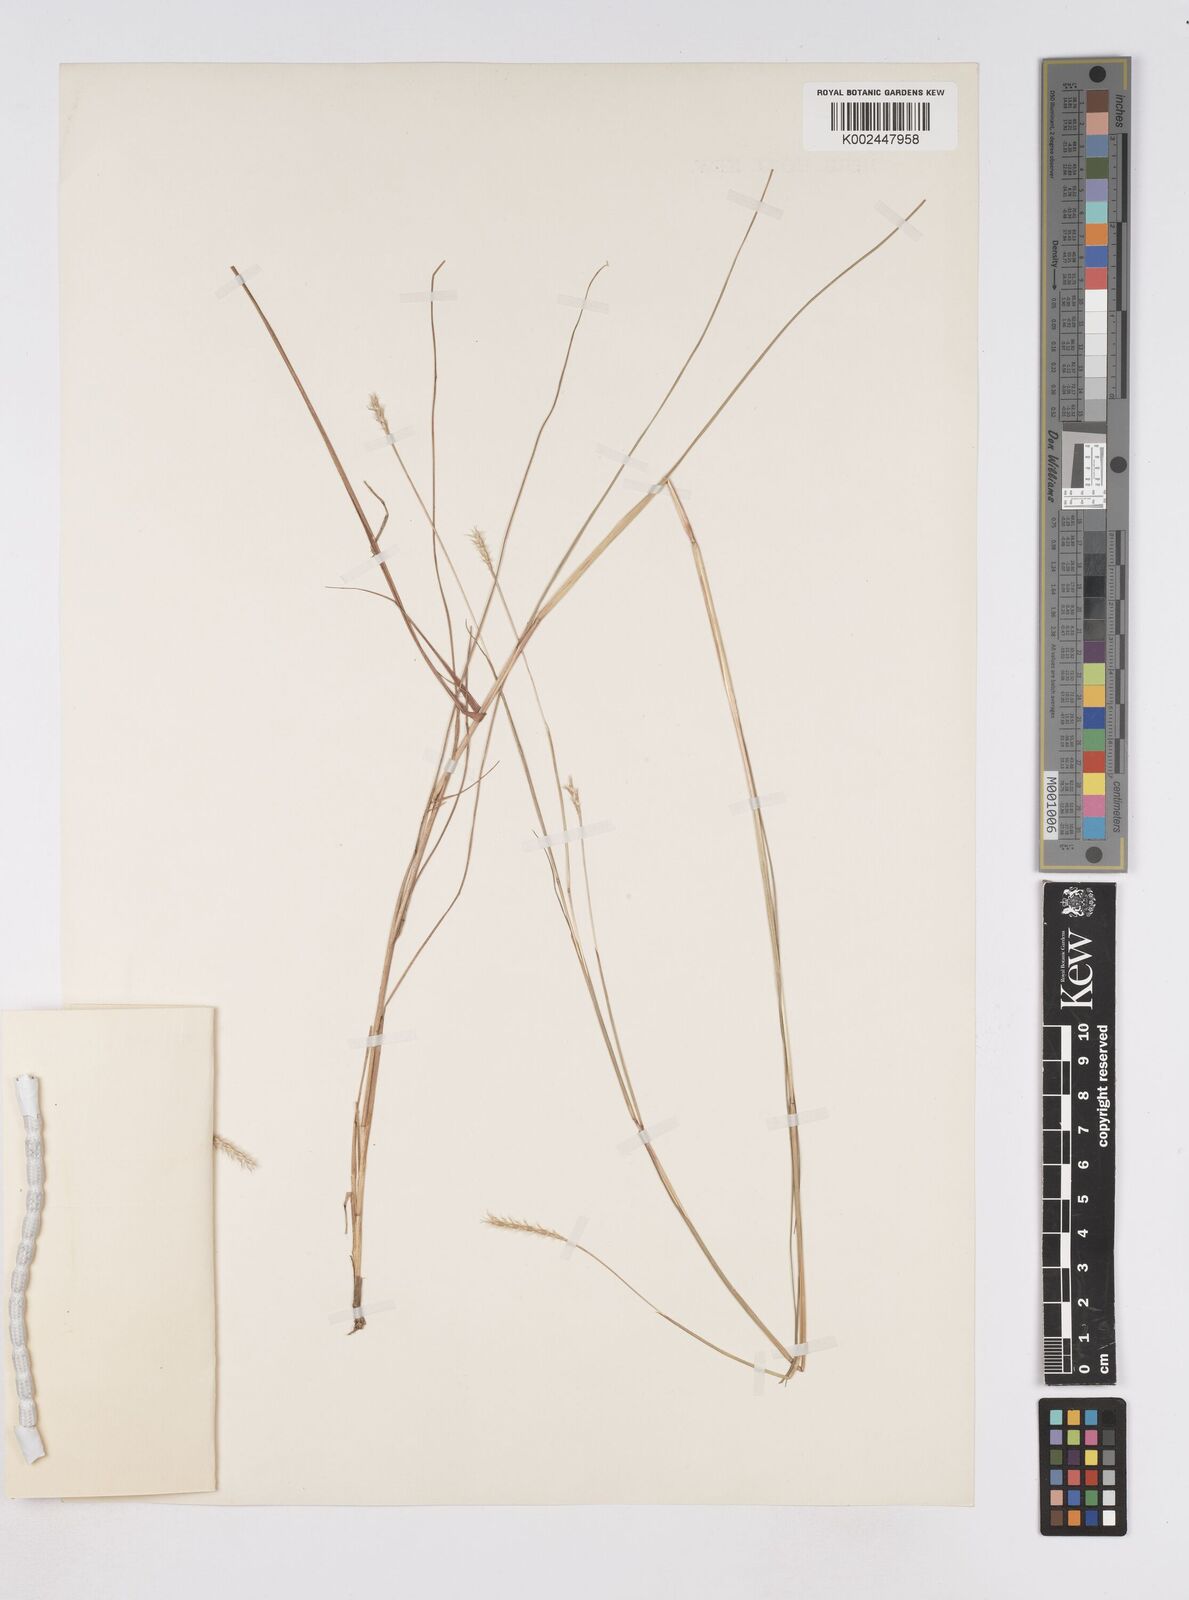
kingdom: Plantae
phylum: Tracheophyta
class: Liliopsida
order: Poales
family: Poaceae
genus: Elionurus
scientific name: Elionurus hensii
